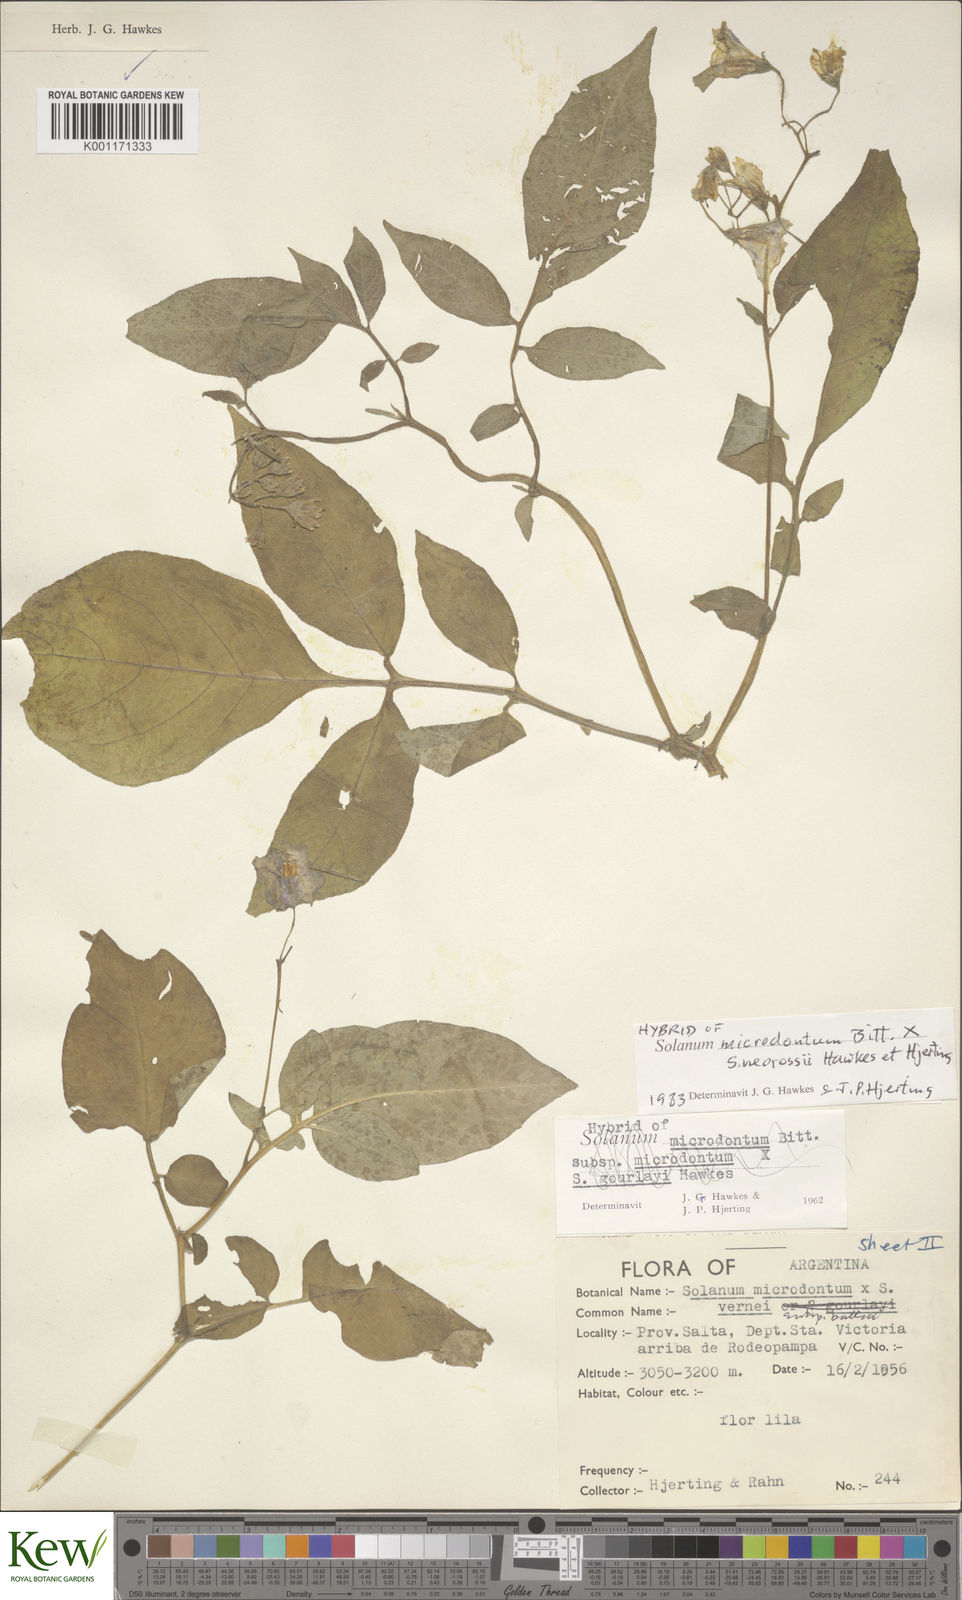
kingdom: Plantae
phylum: Tracheophyta
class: Magnoliopsida
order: Solanales
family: Solanaceae
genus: Solanum
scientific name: Solanum microdontum
